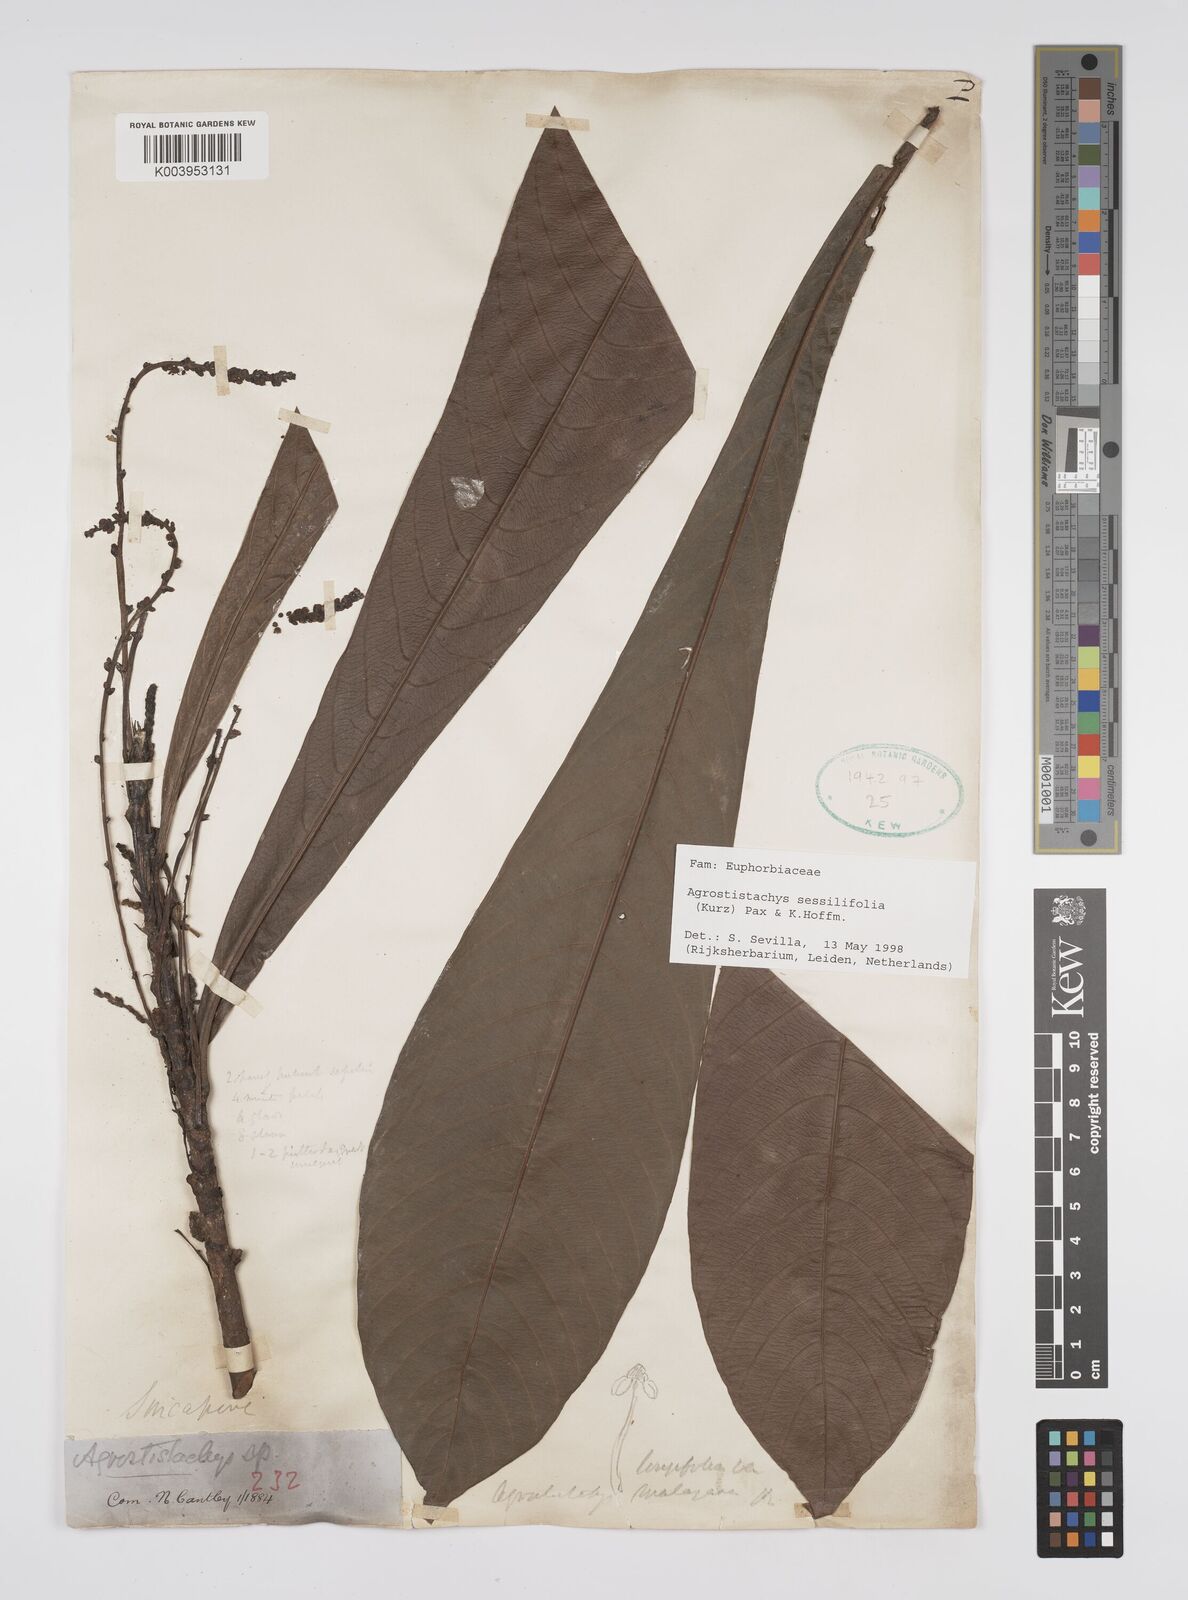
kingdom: Plantae
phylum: Tracheophyta
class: Magnoliopsida
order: Malpighiales
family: Euphorbiaceae
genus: Agrostistachys
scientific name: Agrostistachys sessilifolia
